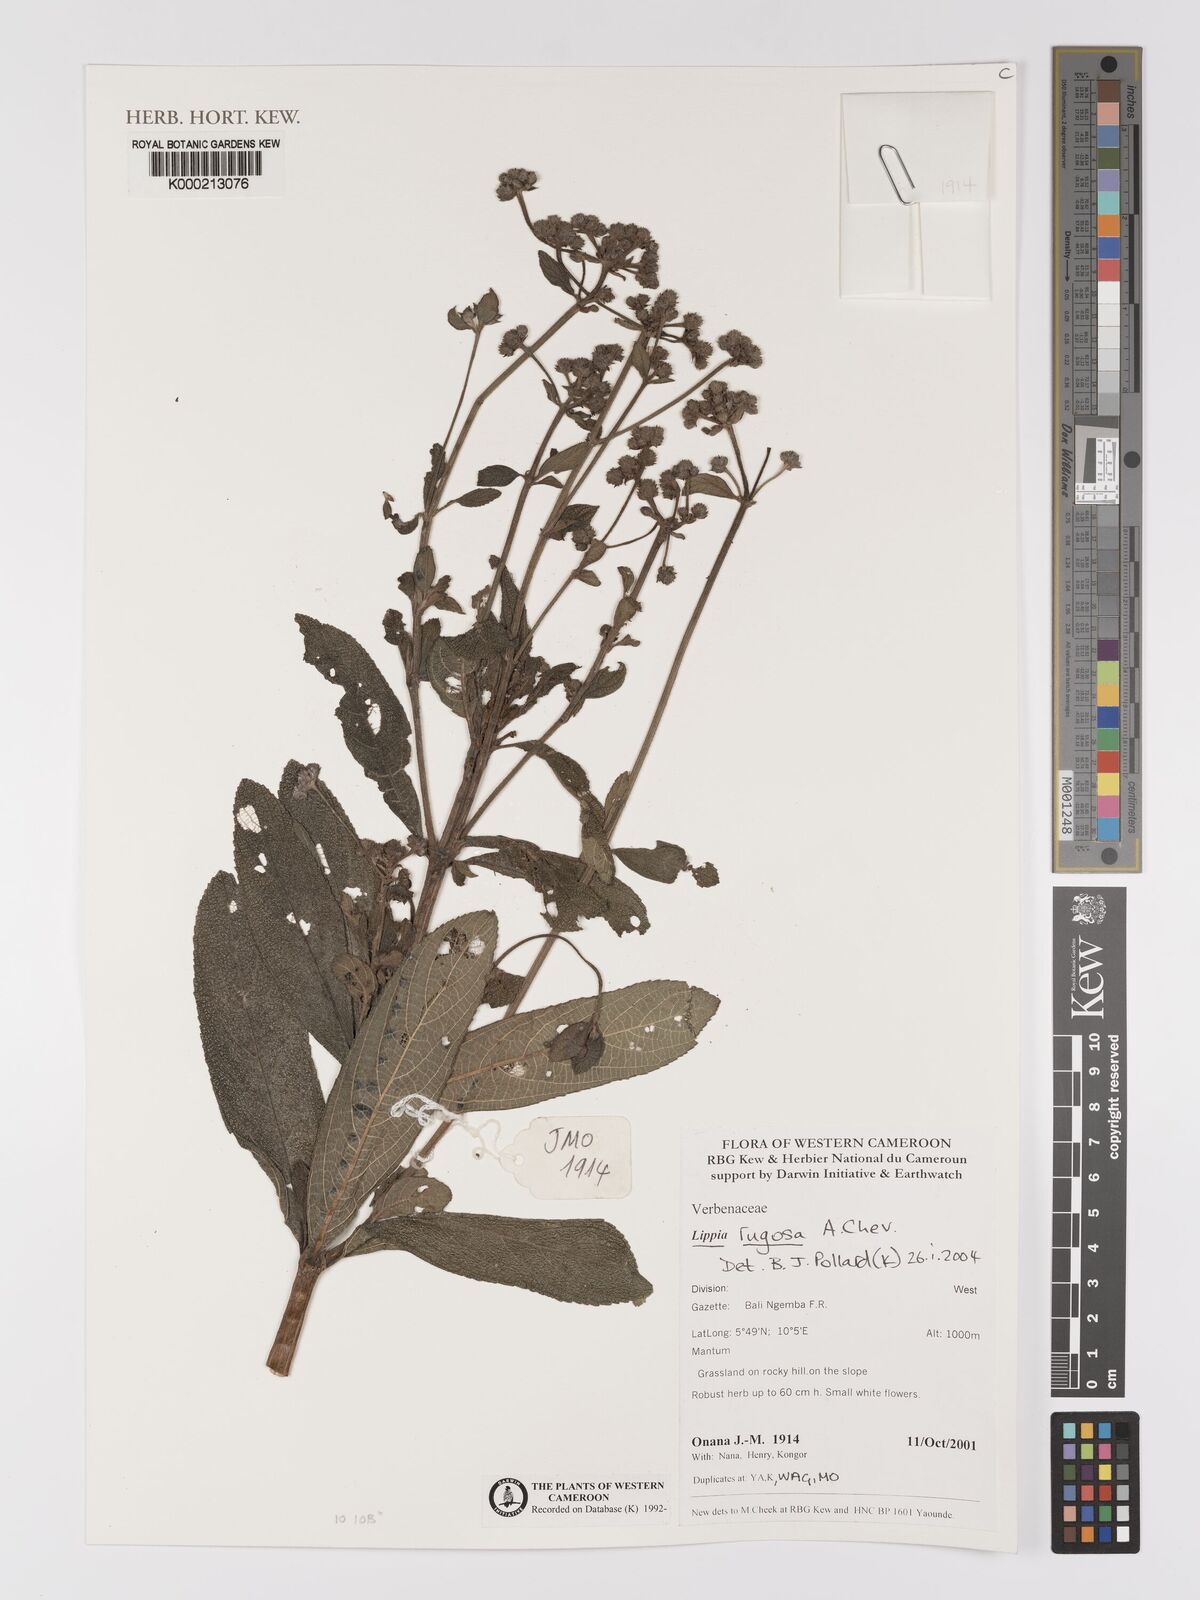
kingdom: Plantae
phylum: Tracheophyta
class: Magnoliopsida
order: Lamiales
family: Verbenaceae
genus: Lippia
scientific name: Lippia rugosa
